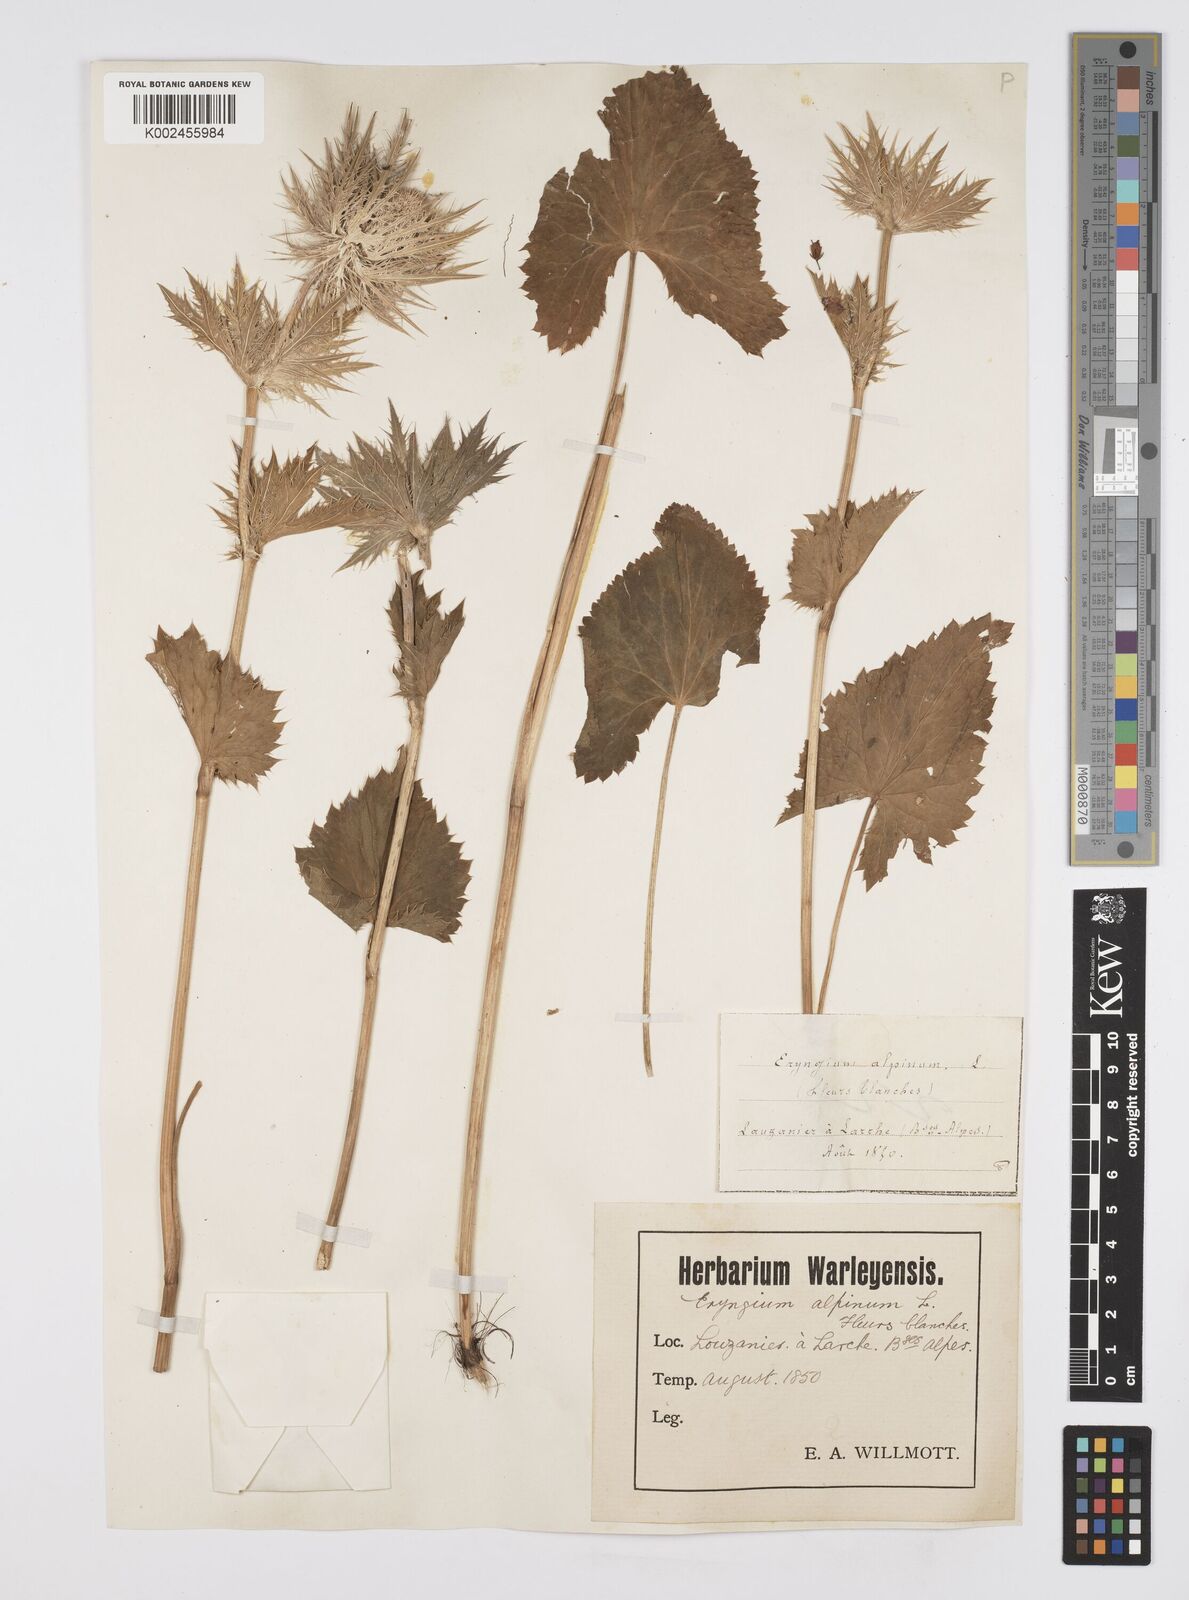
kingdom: Plantae
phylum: Tracheophyta
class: Magnoliopsida
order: Apiales
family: Apiaceae
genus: Eryngium
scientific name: Eryngium alpinum
